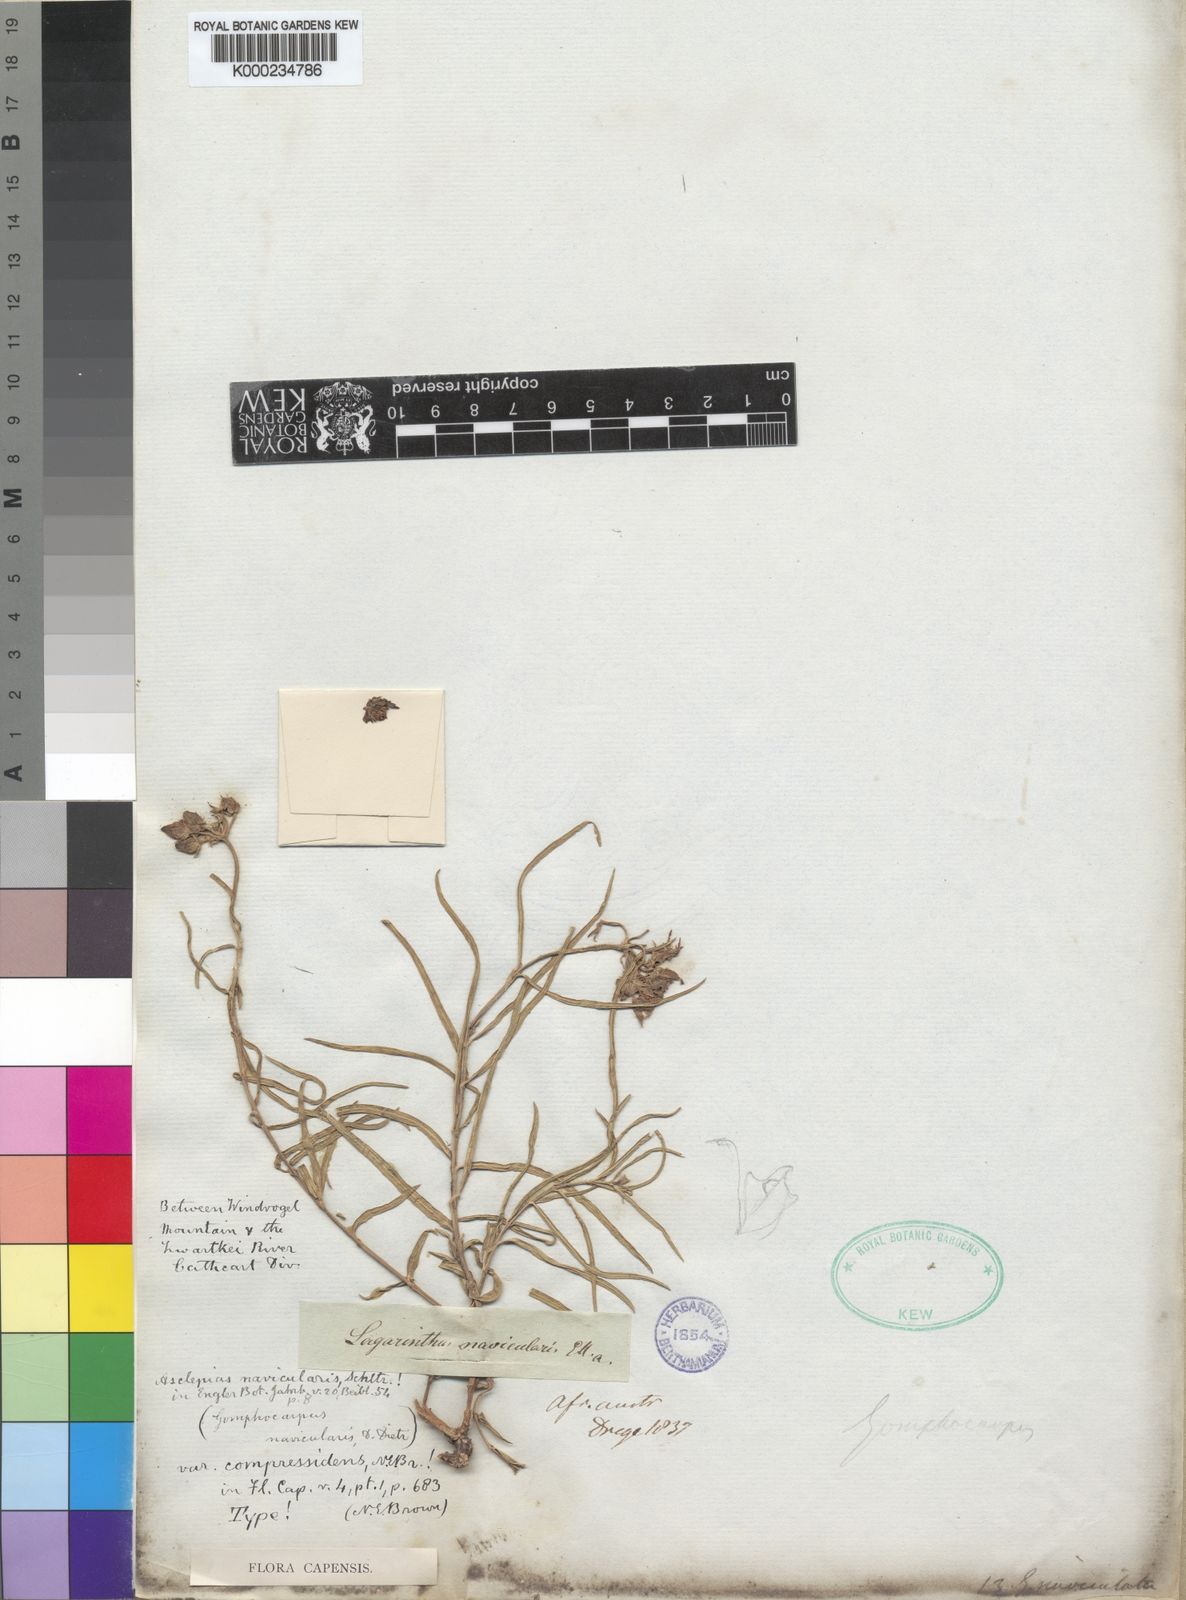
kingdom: Plantae
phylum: Tracheophyta
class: Magnoliopsida
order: Gentianales
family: Apocynaceae
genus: Asclepias
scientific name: Asclepias navicularis
